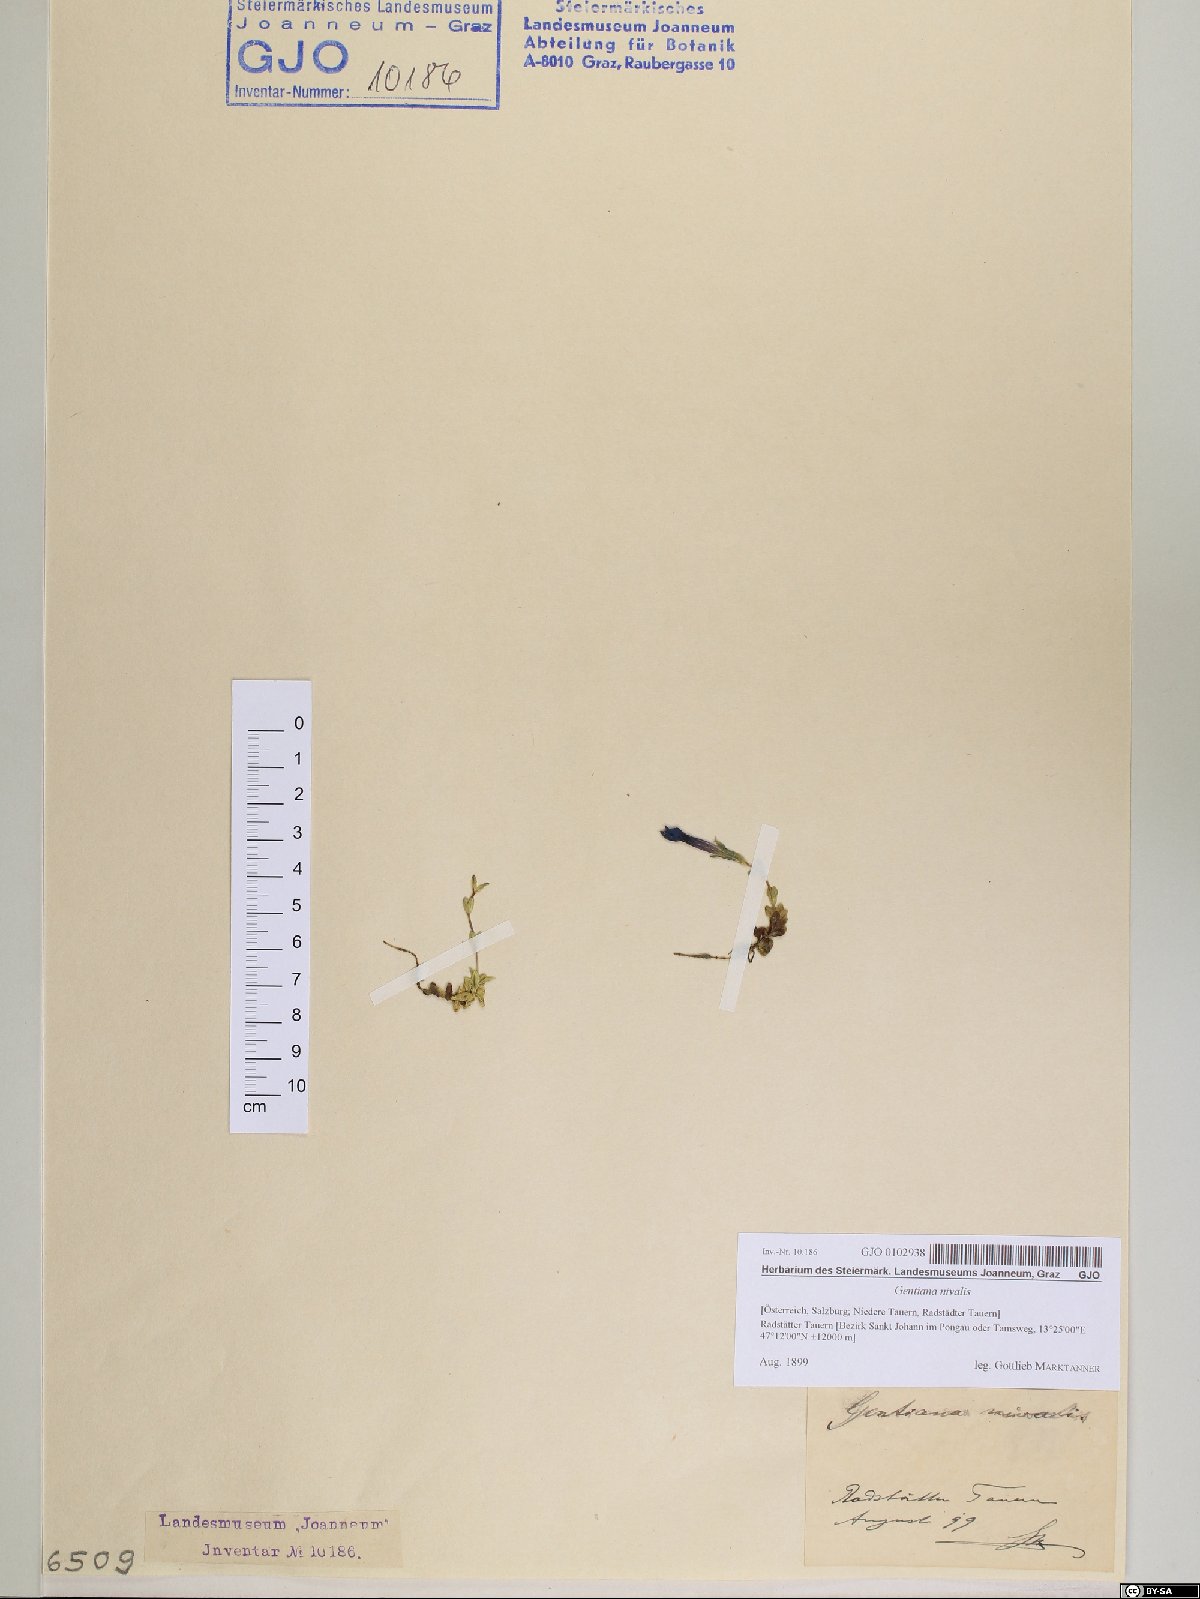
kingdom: Plantae
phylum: Tracheophyta
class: Magnoliopsida
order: Gentianales
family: Gentianaceae
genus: Gentiana
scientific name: Gentiana nivalis
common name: Alpine gentian
